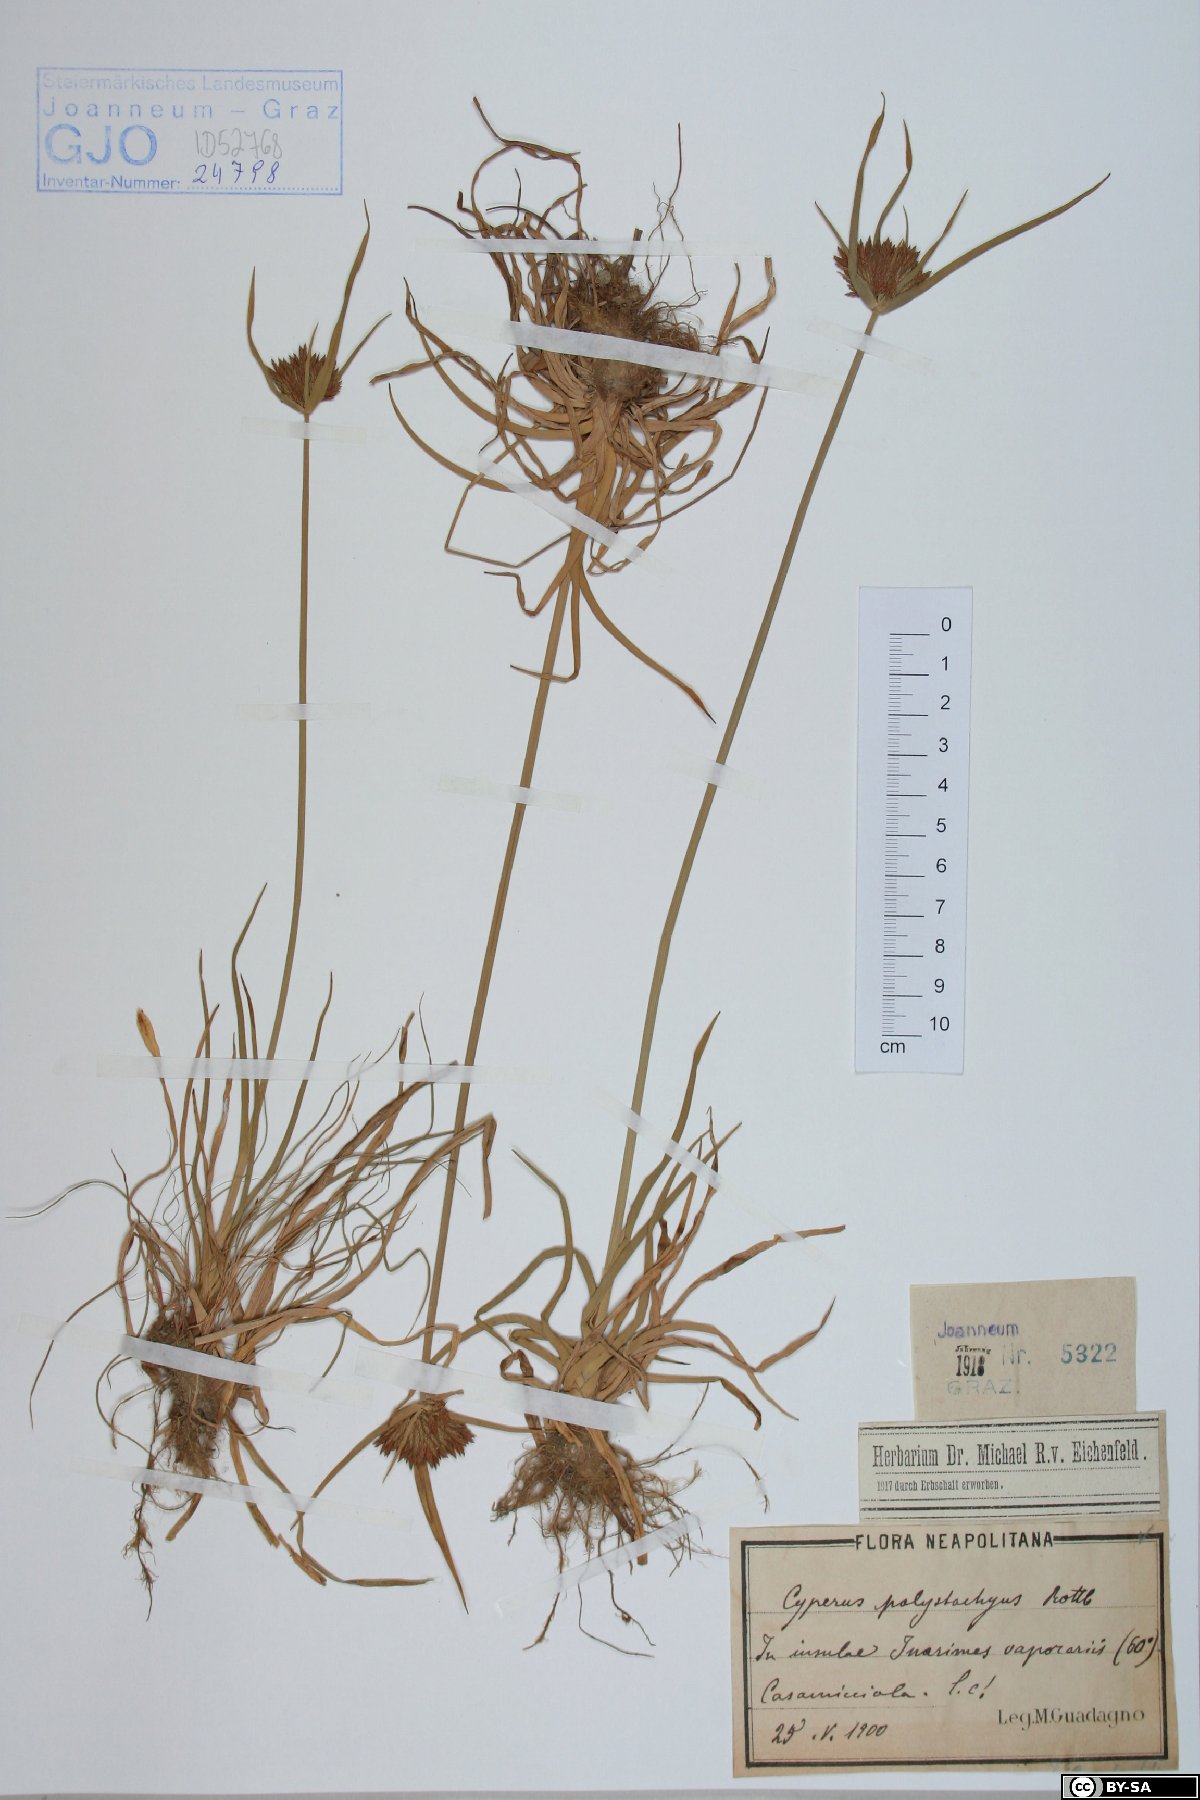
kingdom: Plantae
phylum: Tracheophyta
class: Liliopsida
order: Poales
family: Cyperaceae
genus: Cyperus
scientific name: Cyperus polystachyos
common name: Bunchy flat sedge
